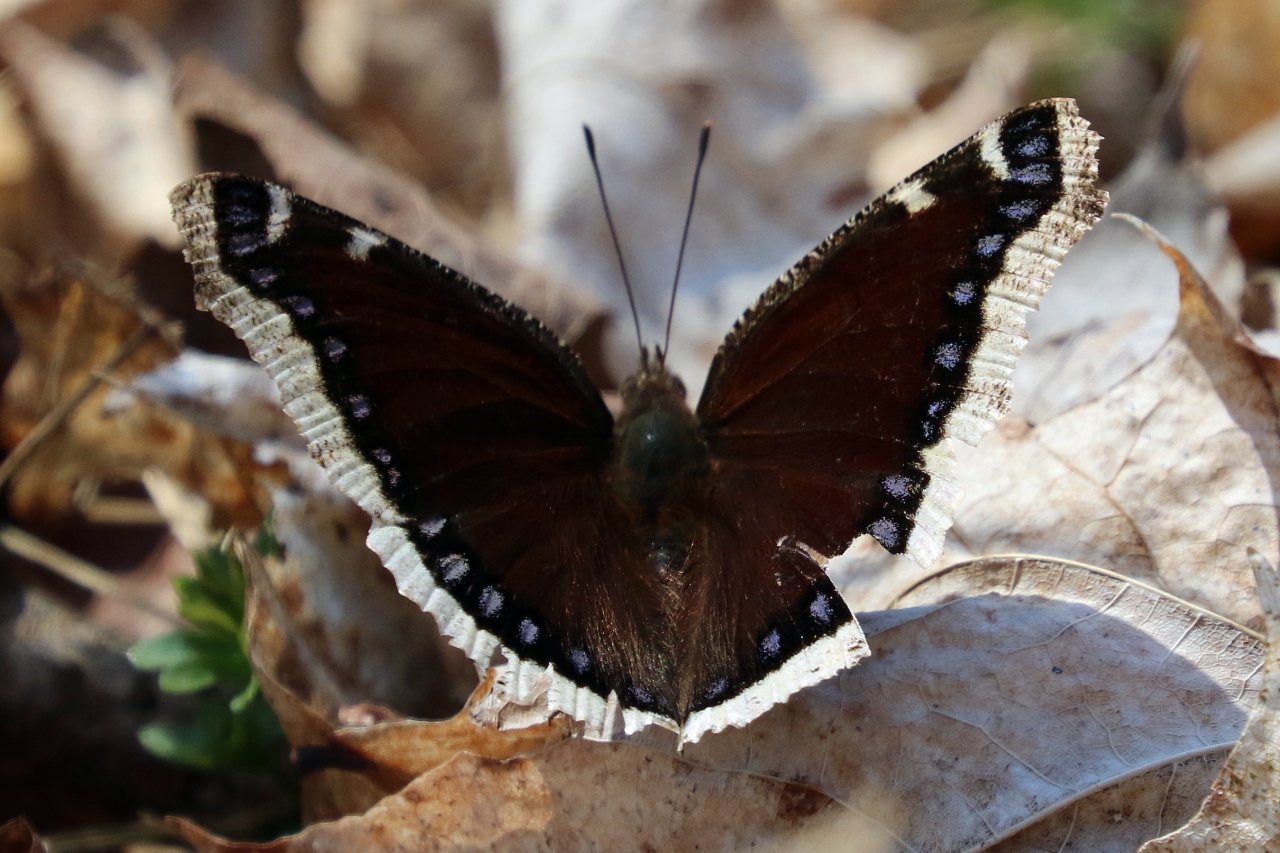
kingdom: Animalia
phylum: Arthropoda
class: Insecta
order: Lepidoptera
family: Nymphalidae
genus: Nymphalis
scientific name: Nymphalis antiopa
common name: Mourning Cloak
